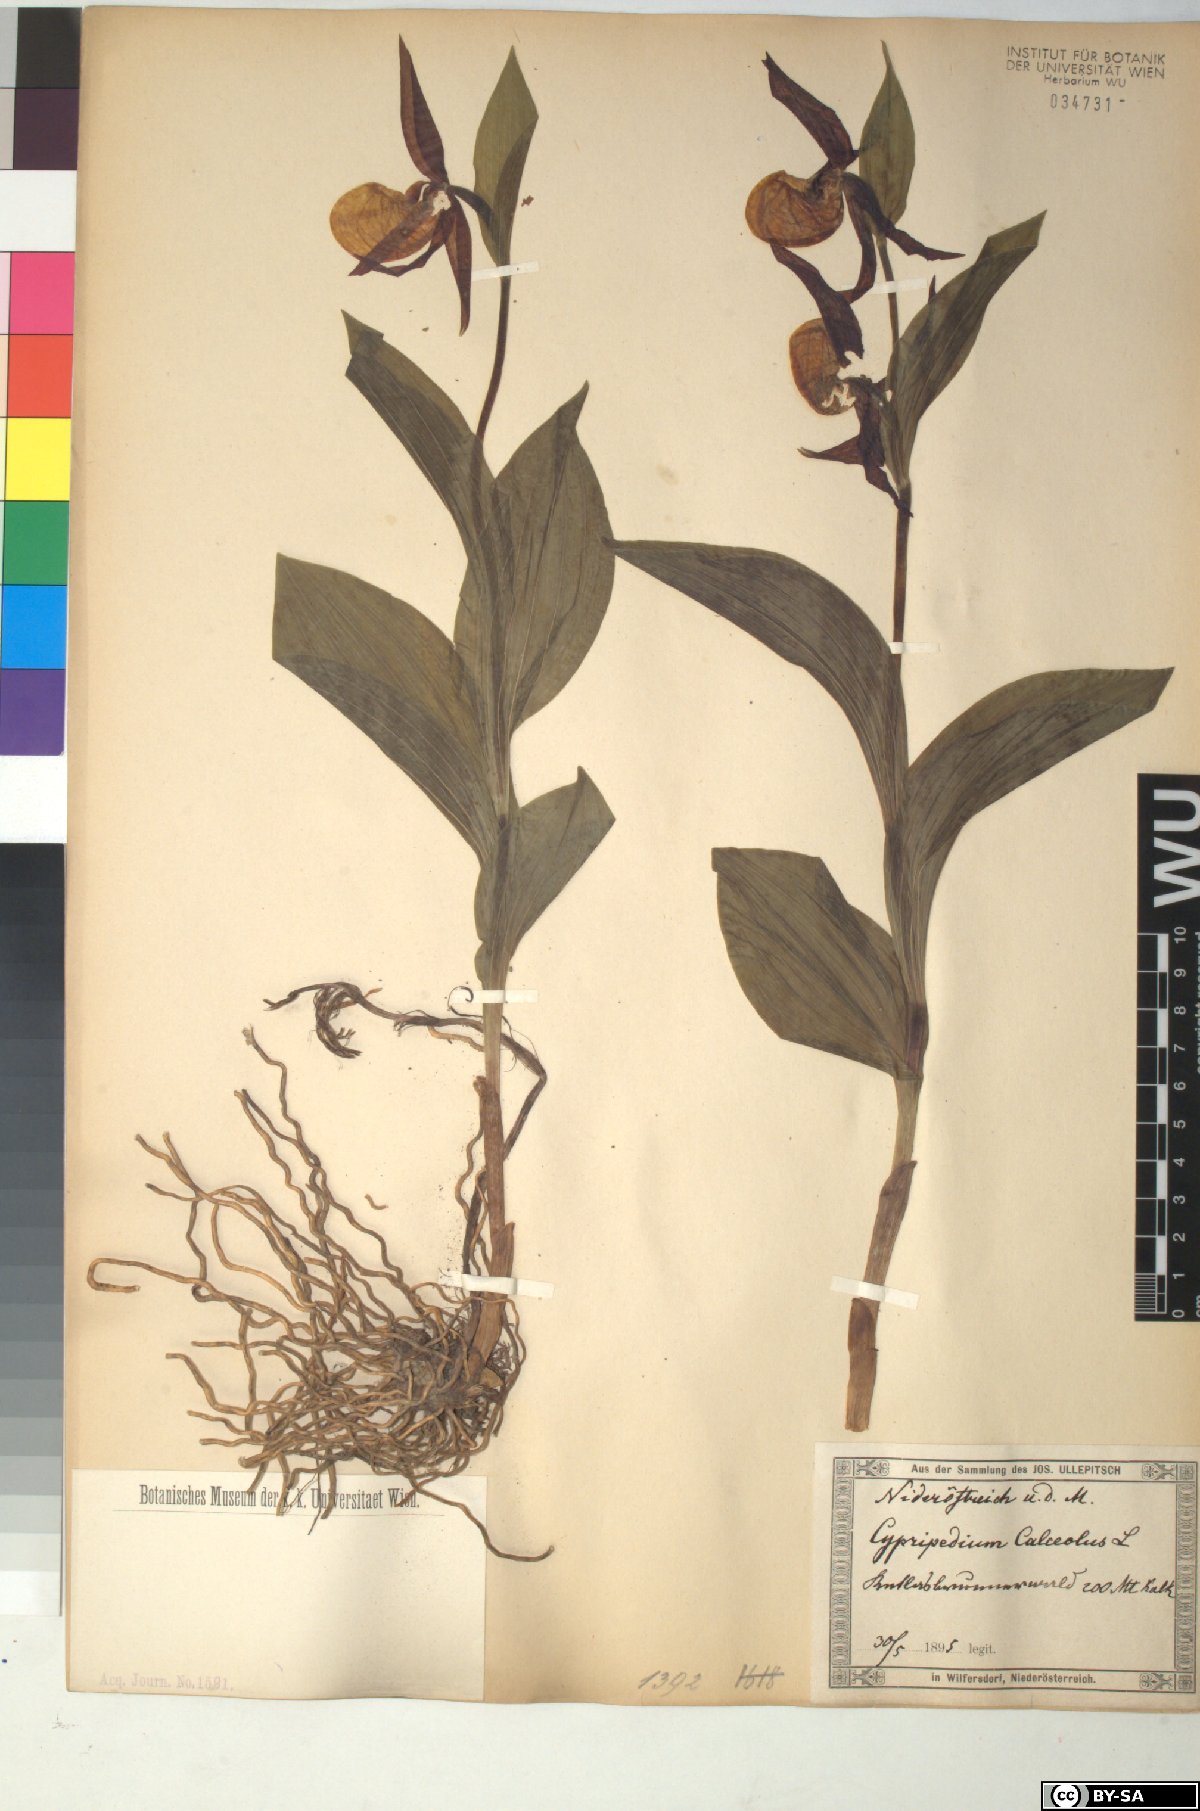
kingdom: Plantae
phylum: Tracheophyta
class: Liliopsida
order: Asparagales
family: Orchidaceae
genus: Cypripedium
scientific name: Cypripedium calceolus
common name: Lady's-slipper
